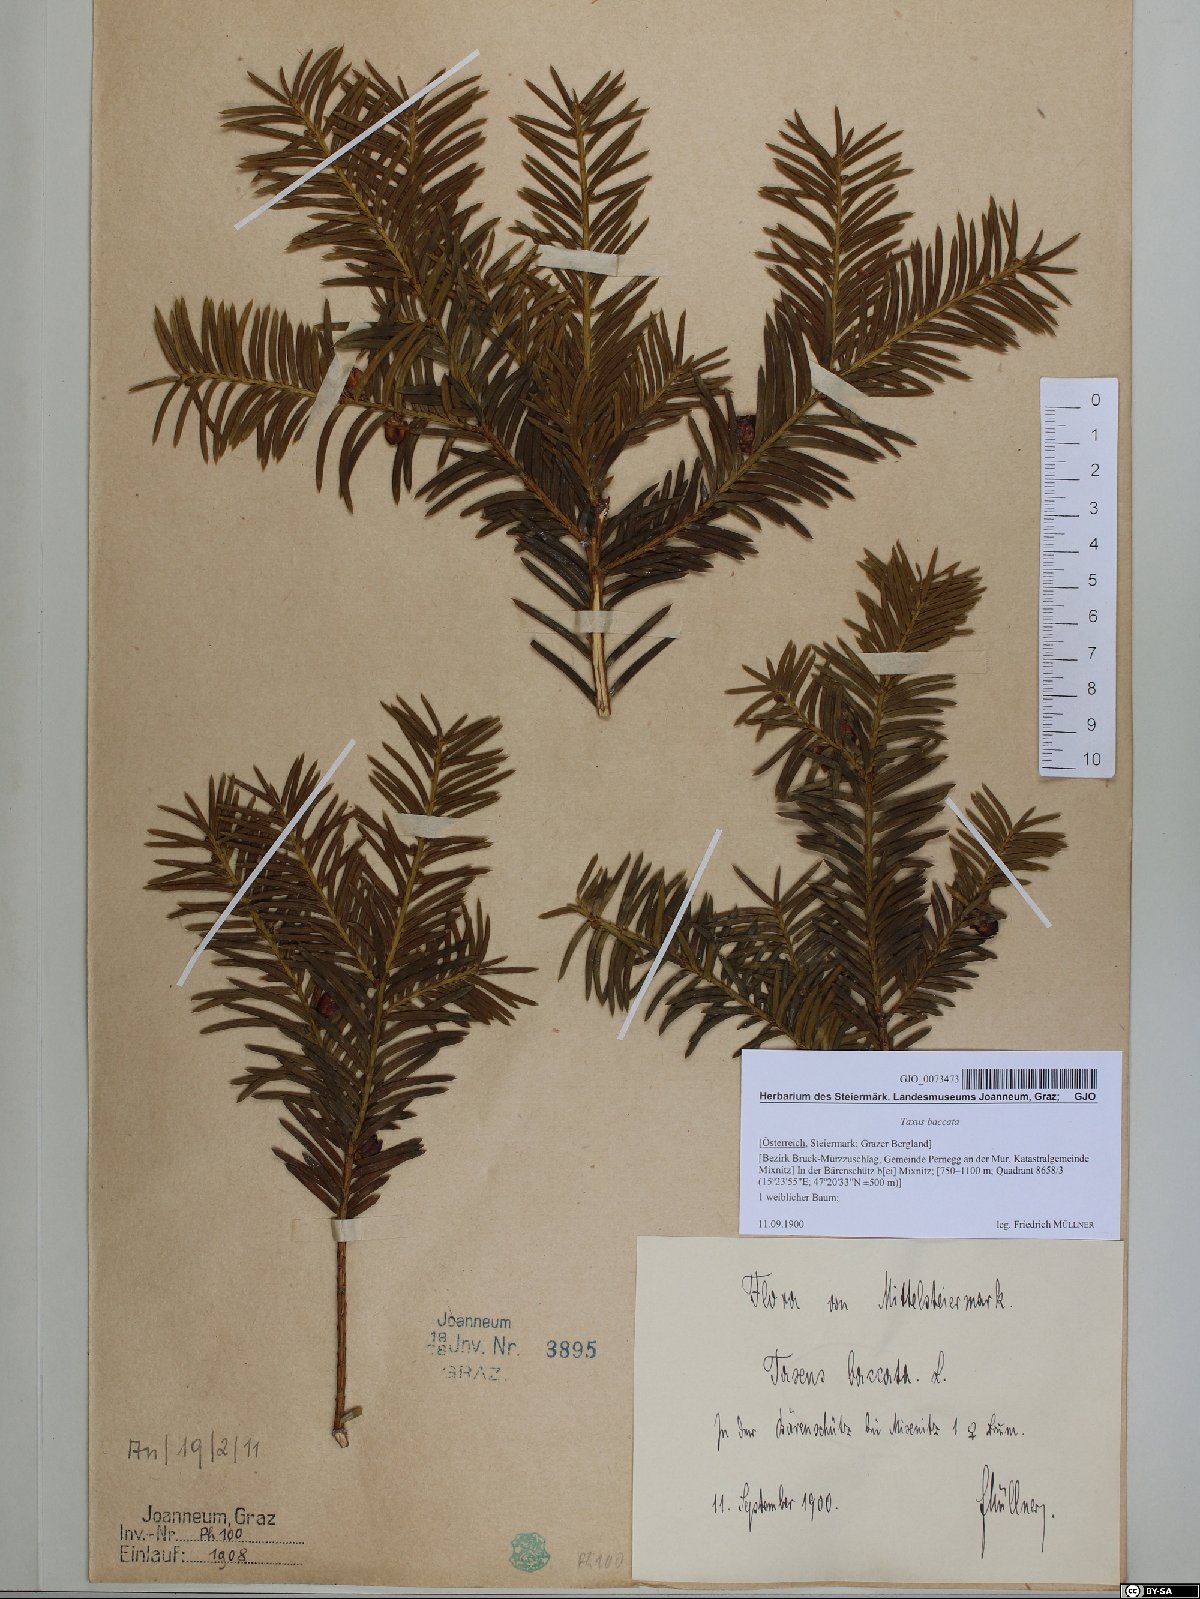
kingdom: Plantae
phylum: Tracheophyta
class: Pinopsida
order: Pinales
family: Taxaceae
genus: Taxus
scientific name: Taxus baccata
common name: Yew
